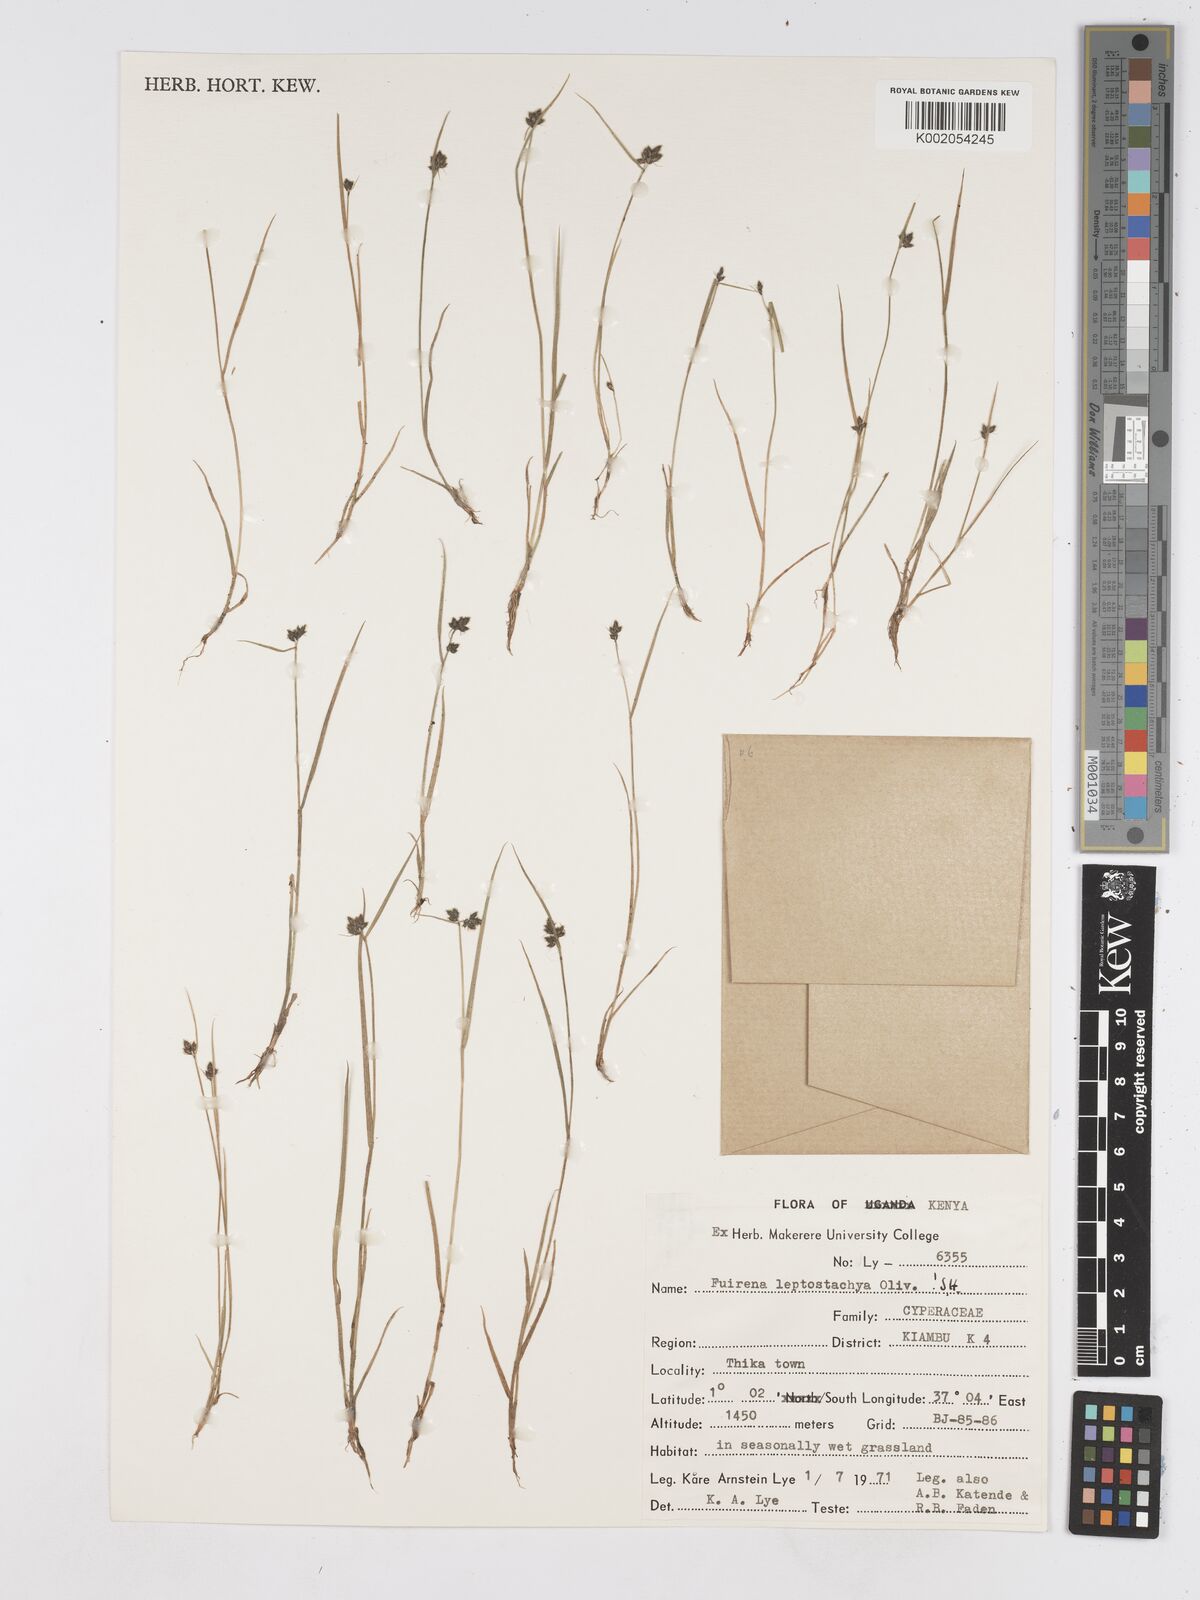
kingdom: Plantae
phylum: Tracheophyta
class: Liliopsida
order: Poales
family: Cyperaceae
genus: Fuirena
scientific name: Fuirena leptostachya
